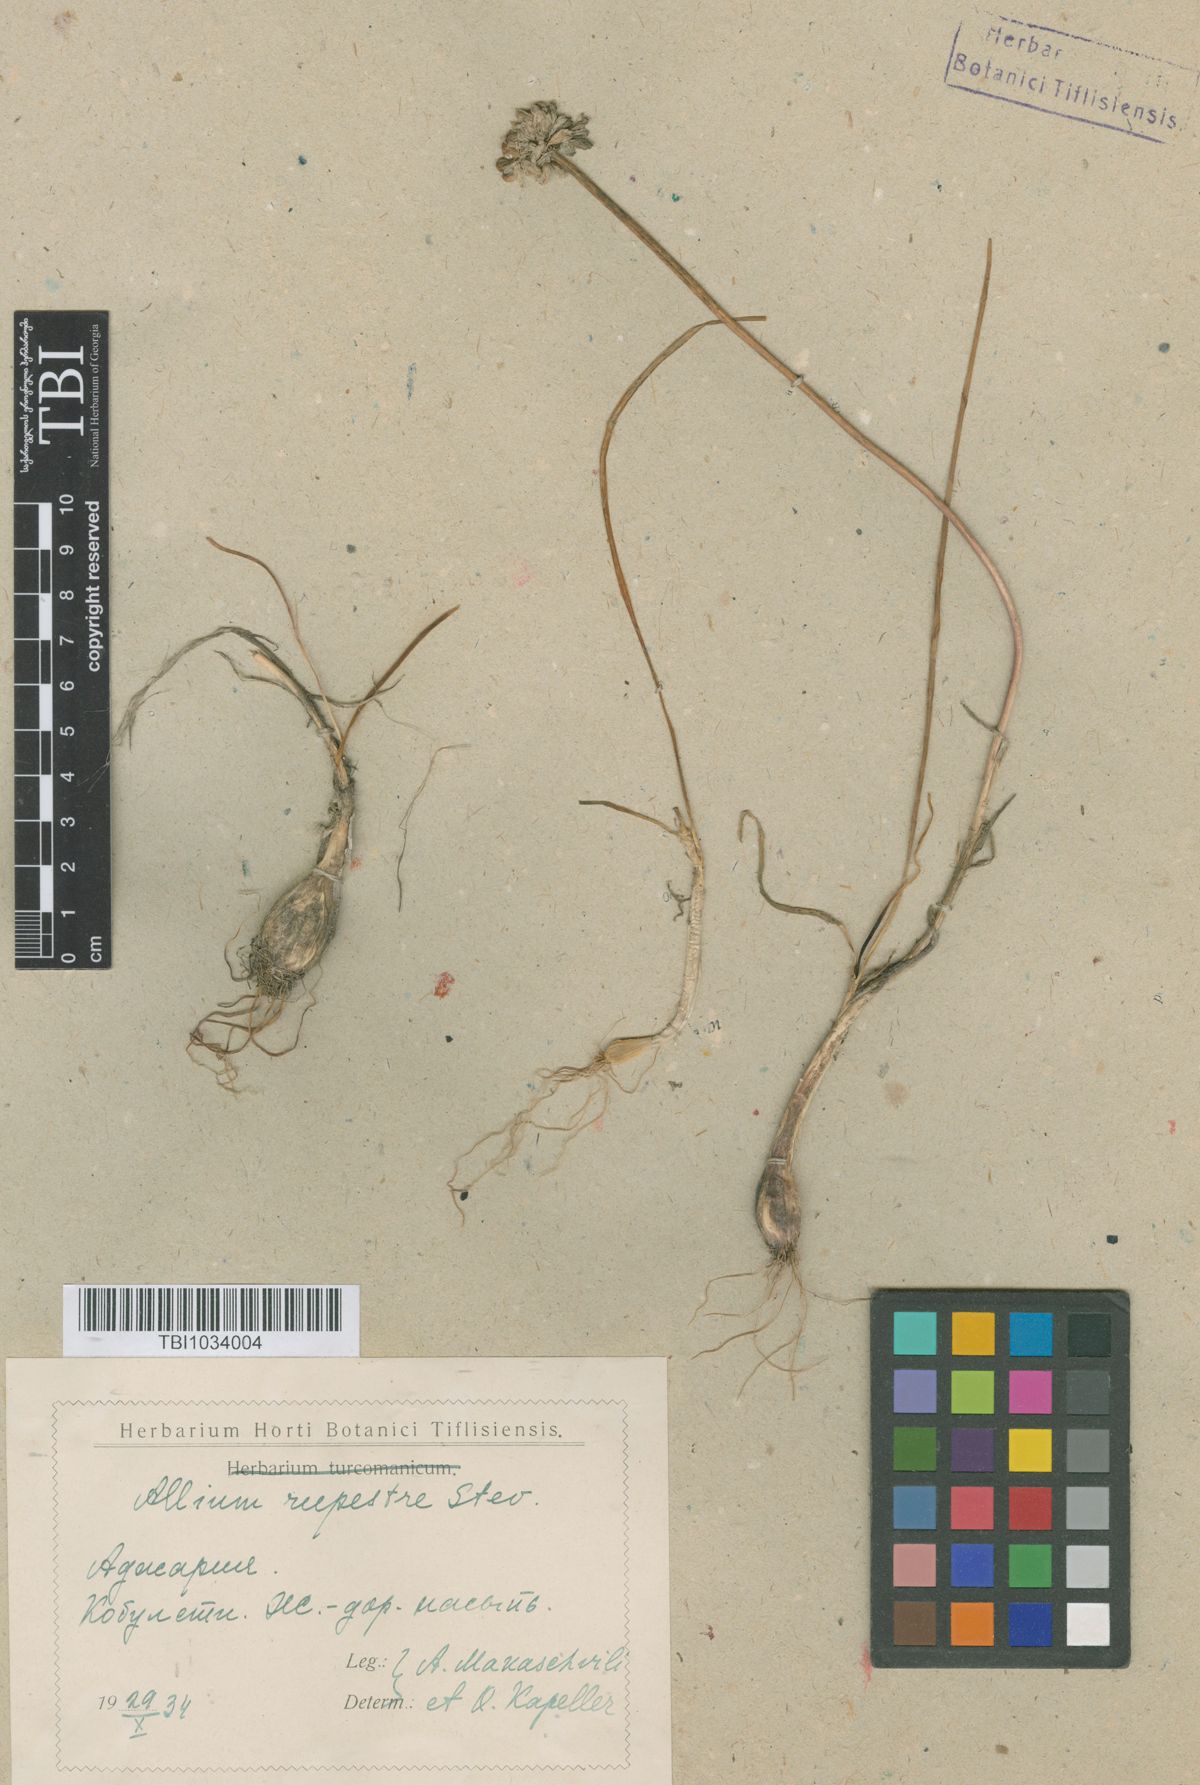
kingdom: Plantae
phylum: Tracheophyta
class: Liliopsida
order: Asparagales
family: Amaryllidaceae
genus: Allium
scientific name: Allium rupestre
